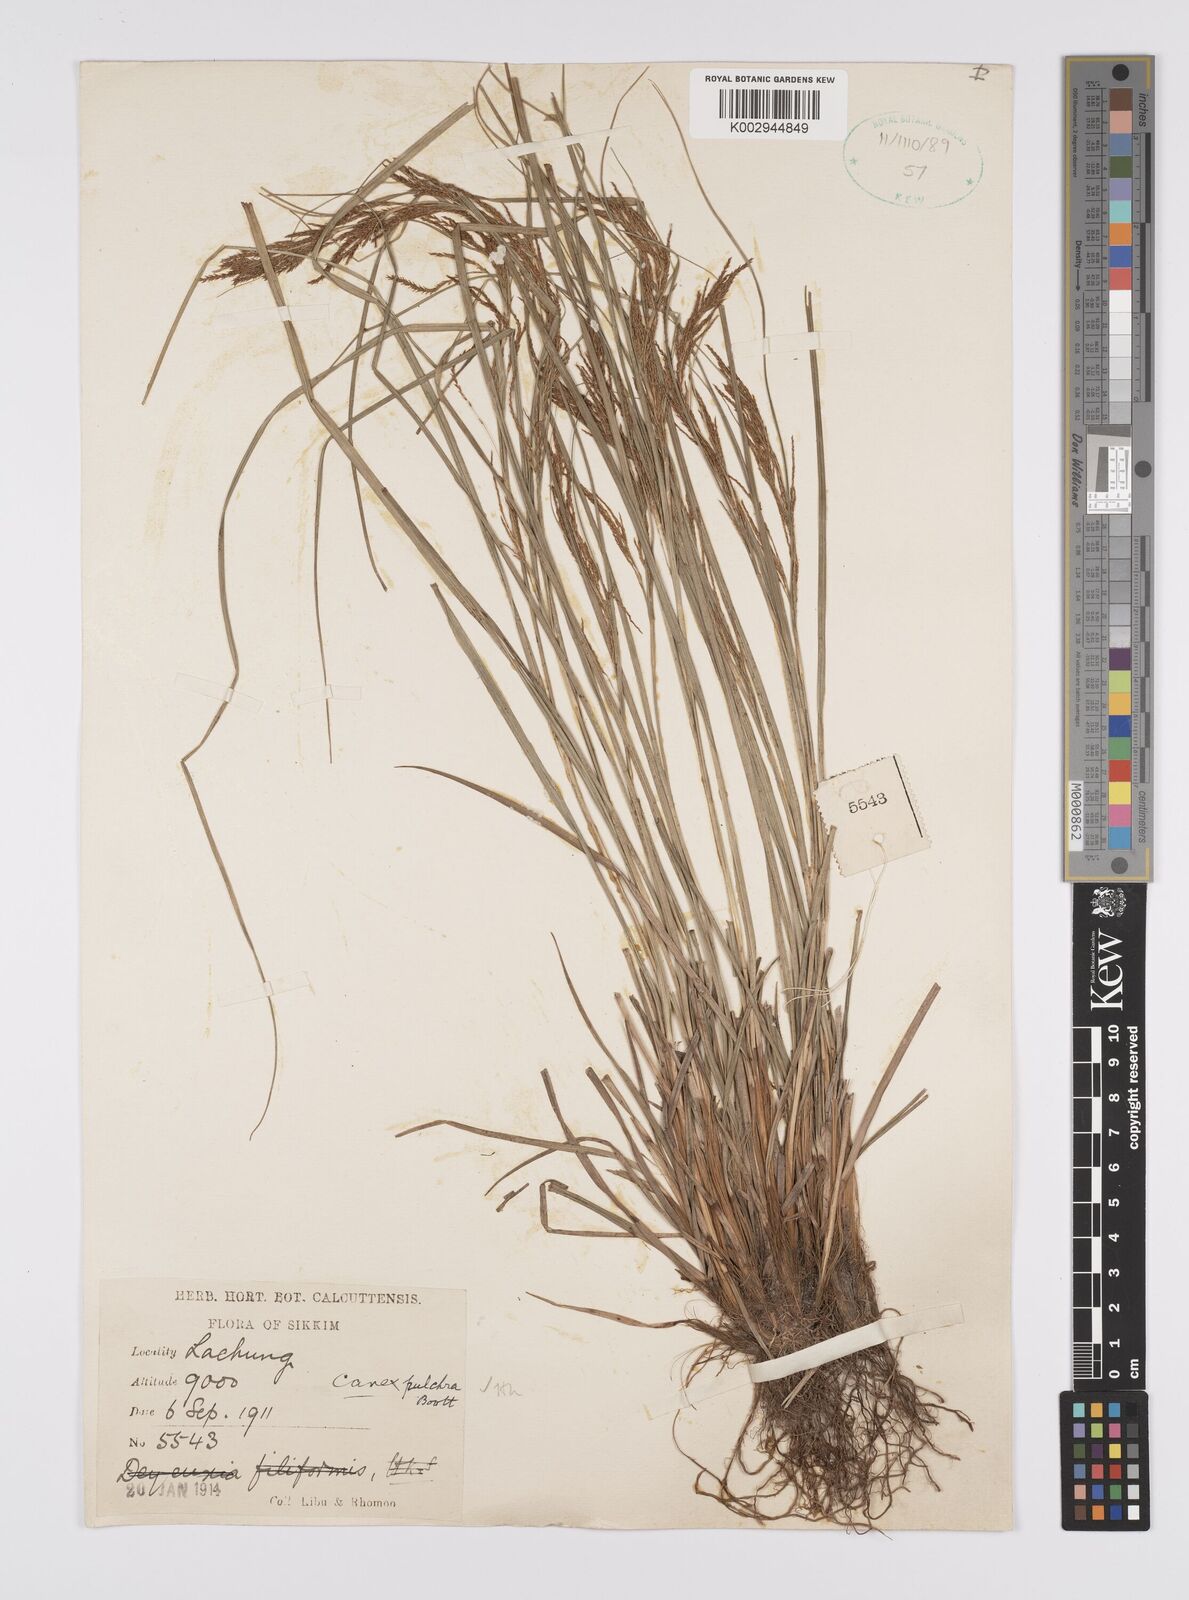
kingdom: Plantae
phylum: Tracheophyta
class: Liliopsida
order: Poales
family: Cyperaceae
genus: Carex
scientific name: Carex pulchra
